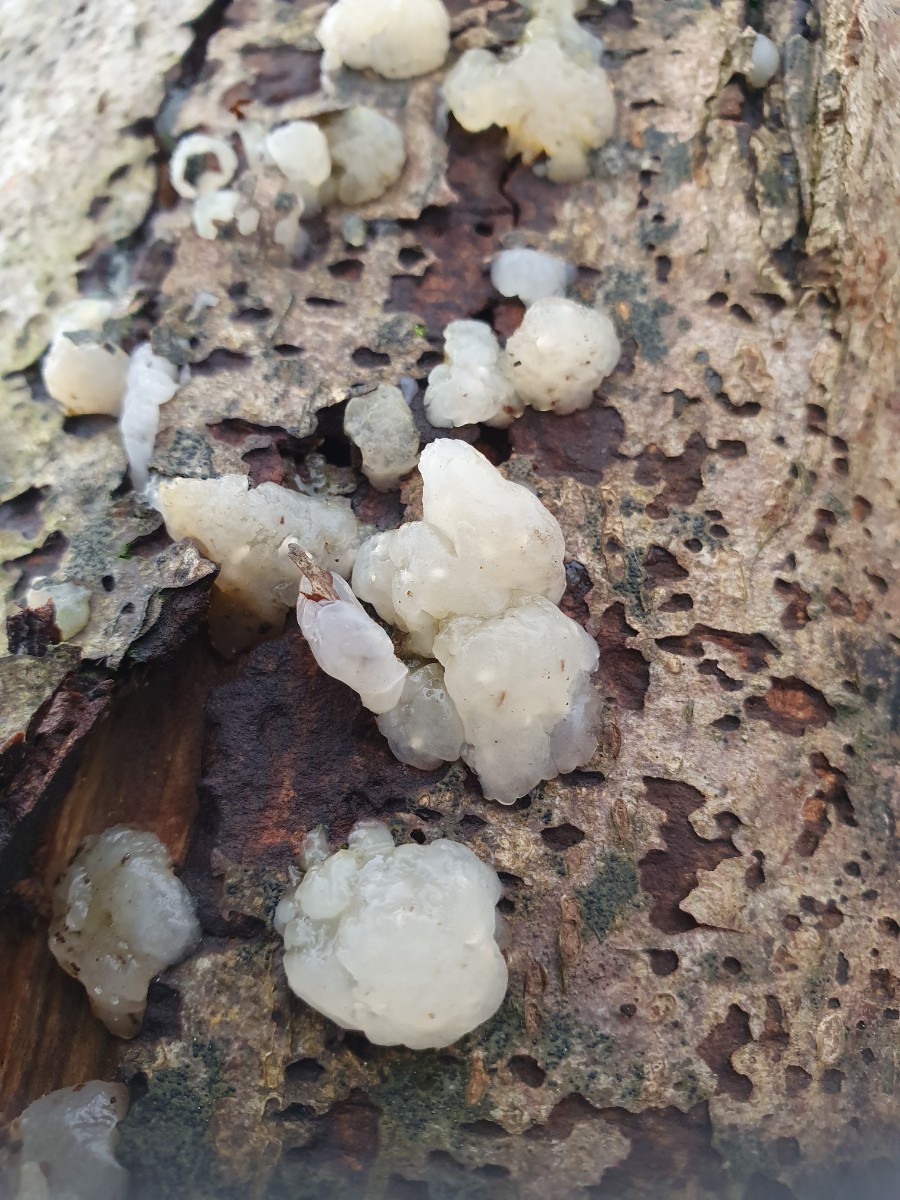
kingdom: Fungi
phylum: Basidiomycota
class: Agaricomycetes
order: Auriculariales
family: Hyaloriaceae
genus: Myxarium
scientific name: Myxarium nucleatum
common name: klar bævretop
